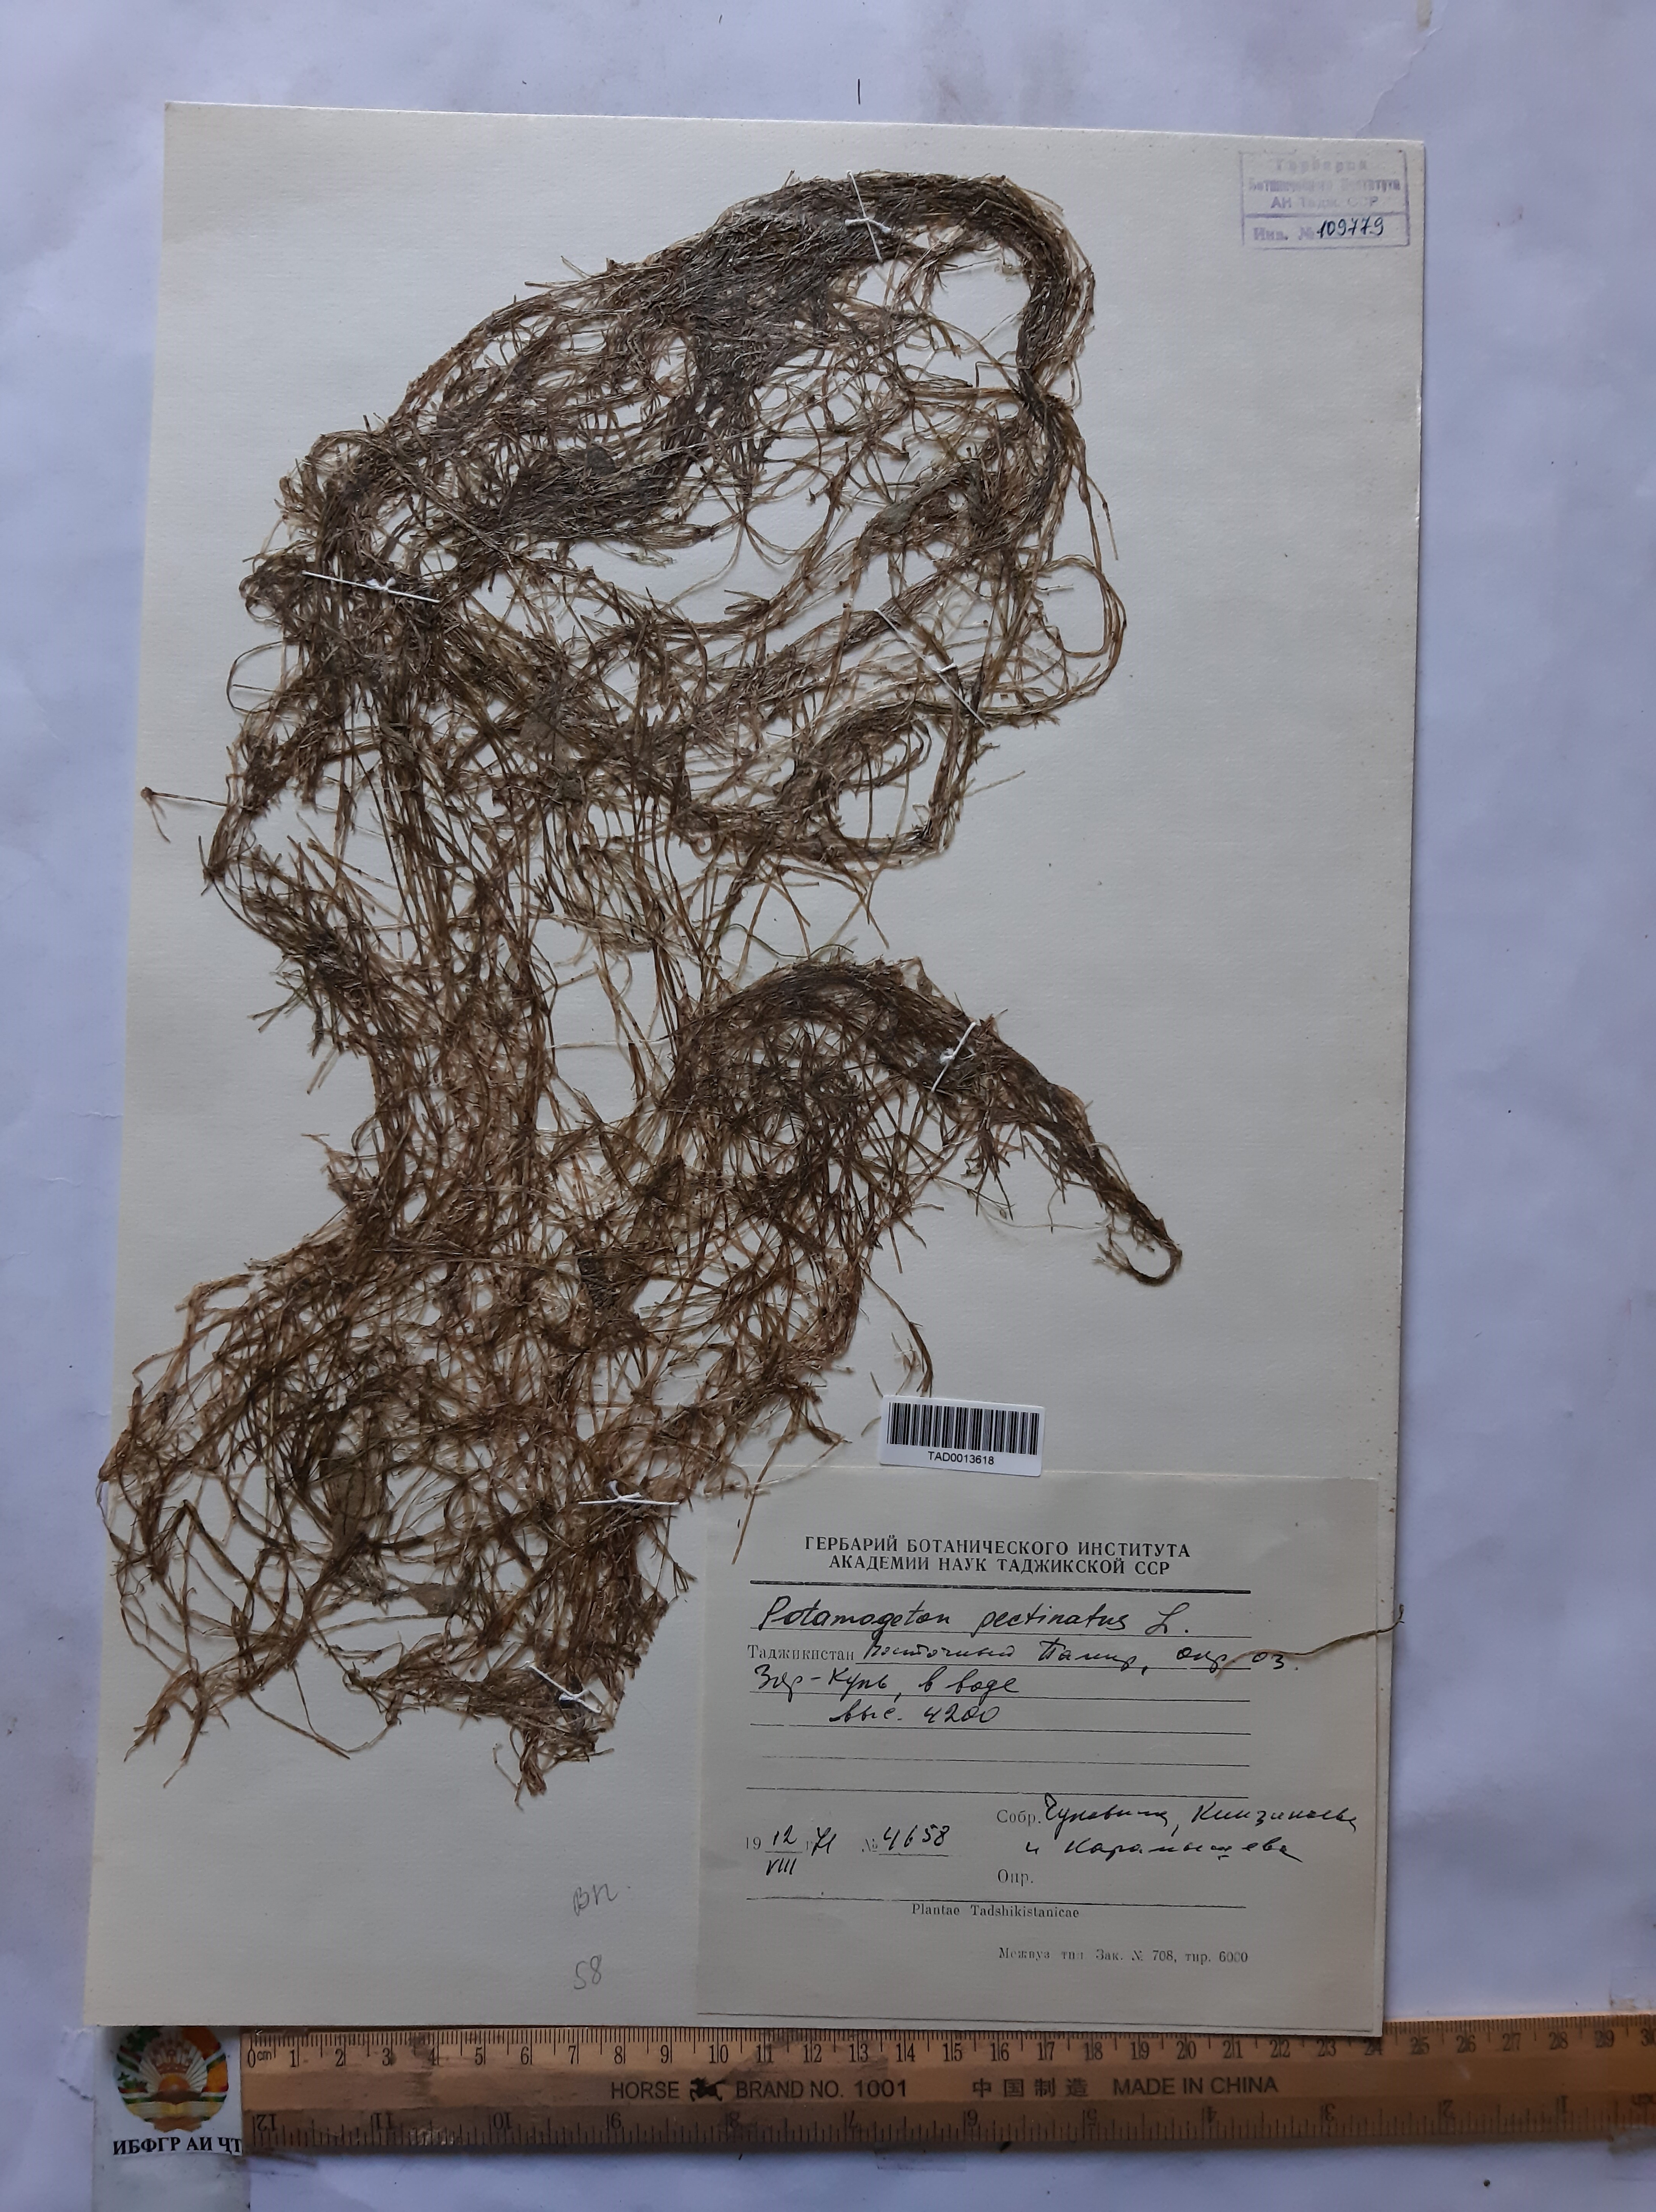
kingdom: Plantae
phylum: Tracheophyta
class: Liliopsida
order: Alismatales
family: Potamogetonaceae
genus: Stuckenia
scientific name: Stuckenia pectinata
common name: Sago pondweed
